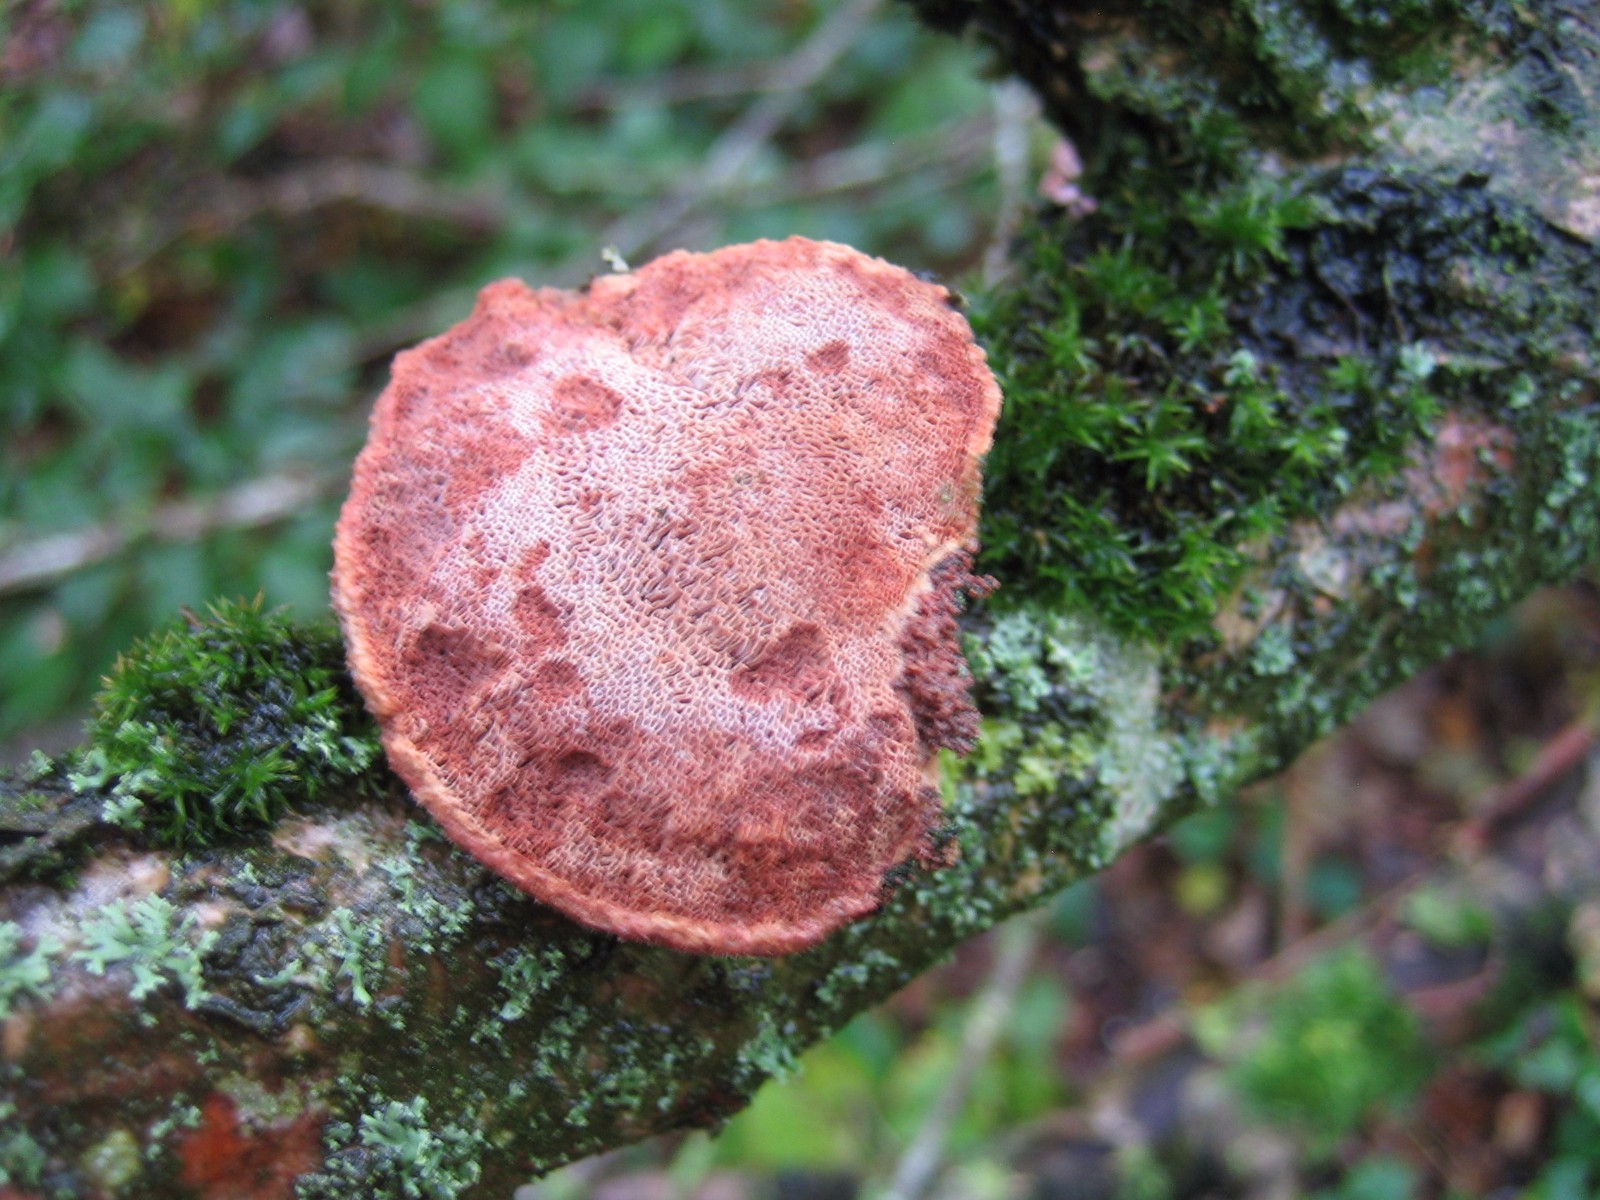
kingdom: Fungi
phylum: Basidiomycota
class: Agaricomycetes
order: Polyporales
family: Phanerochaetaceae
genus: Hapalopilus
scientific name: Hapalopilus rutilans
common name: rødlig okkerporesvamp
